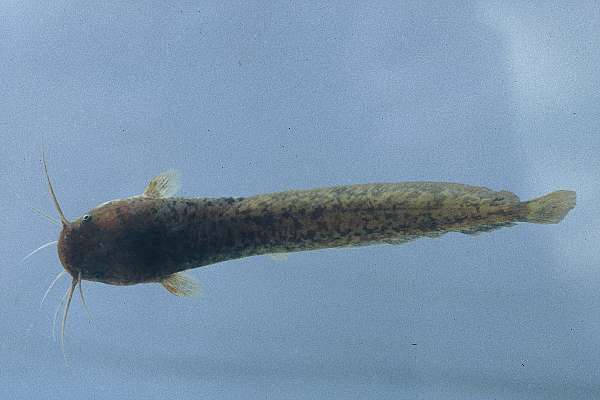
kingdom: Animalia
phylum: Chordata
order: Siluriformes
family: Clariidae
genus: Clarias
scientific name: Clarias liocephalus
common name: Smooth-head catfish
